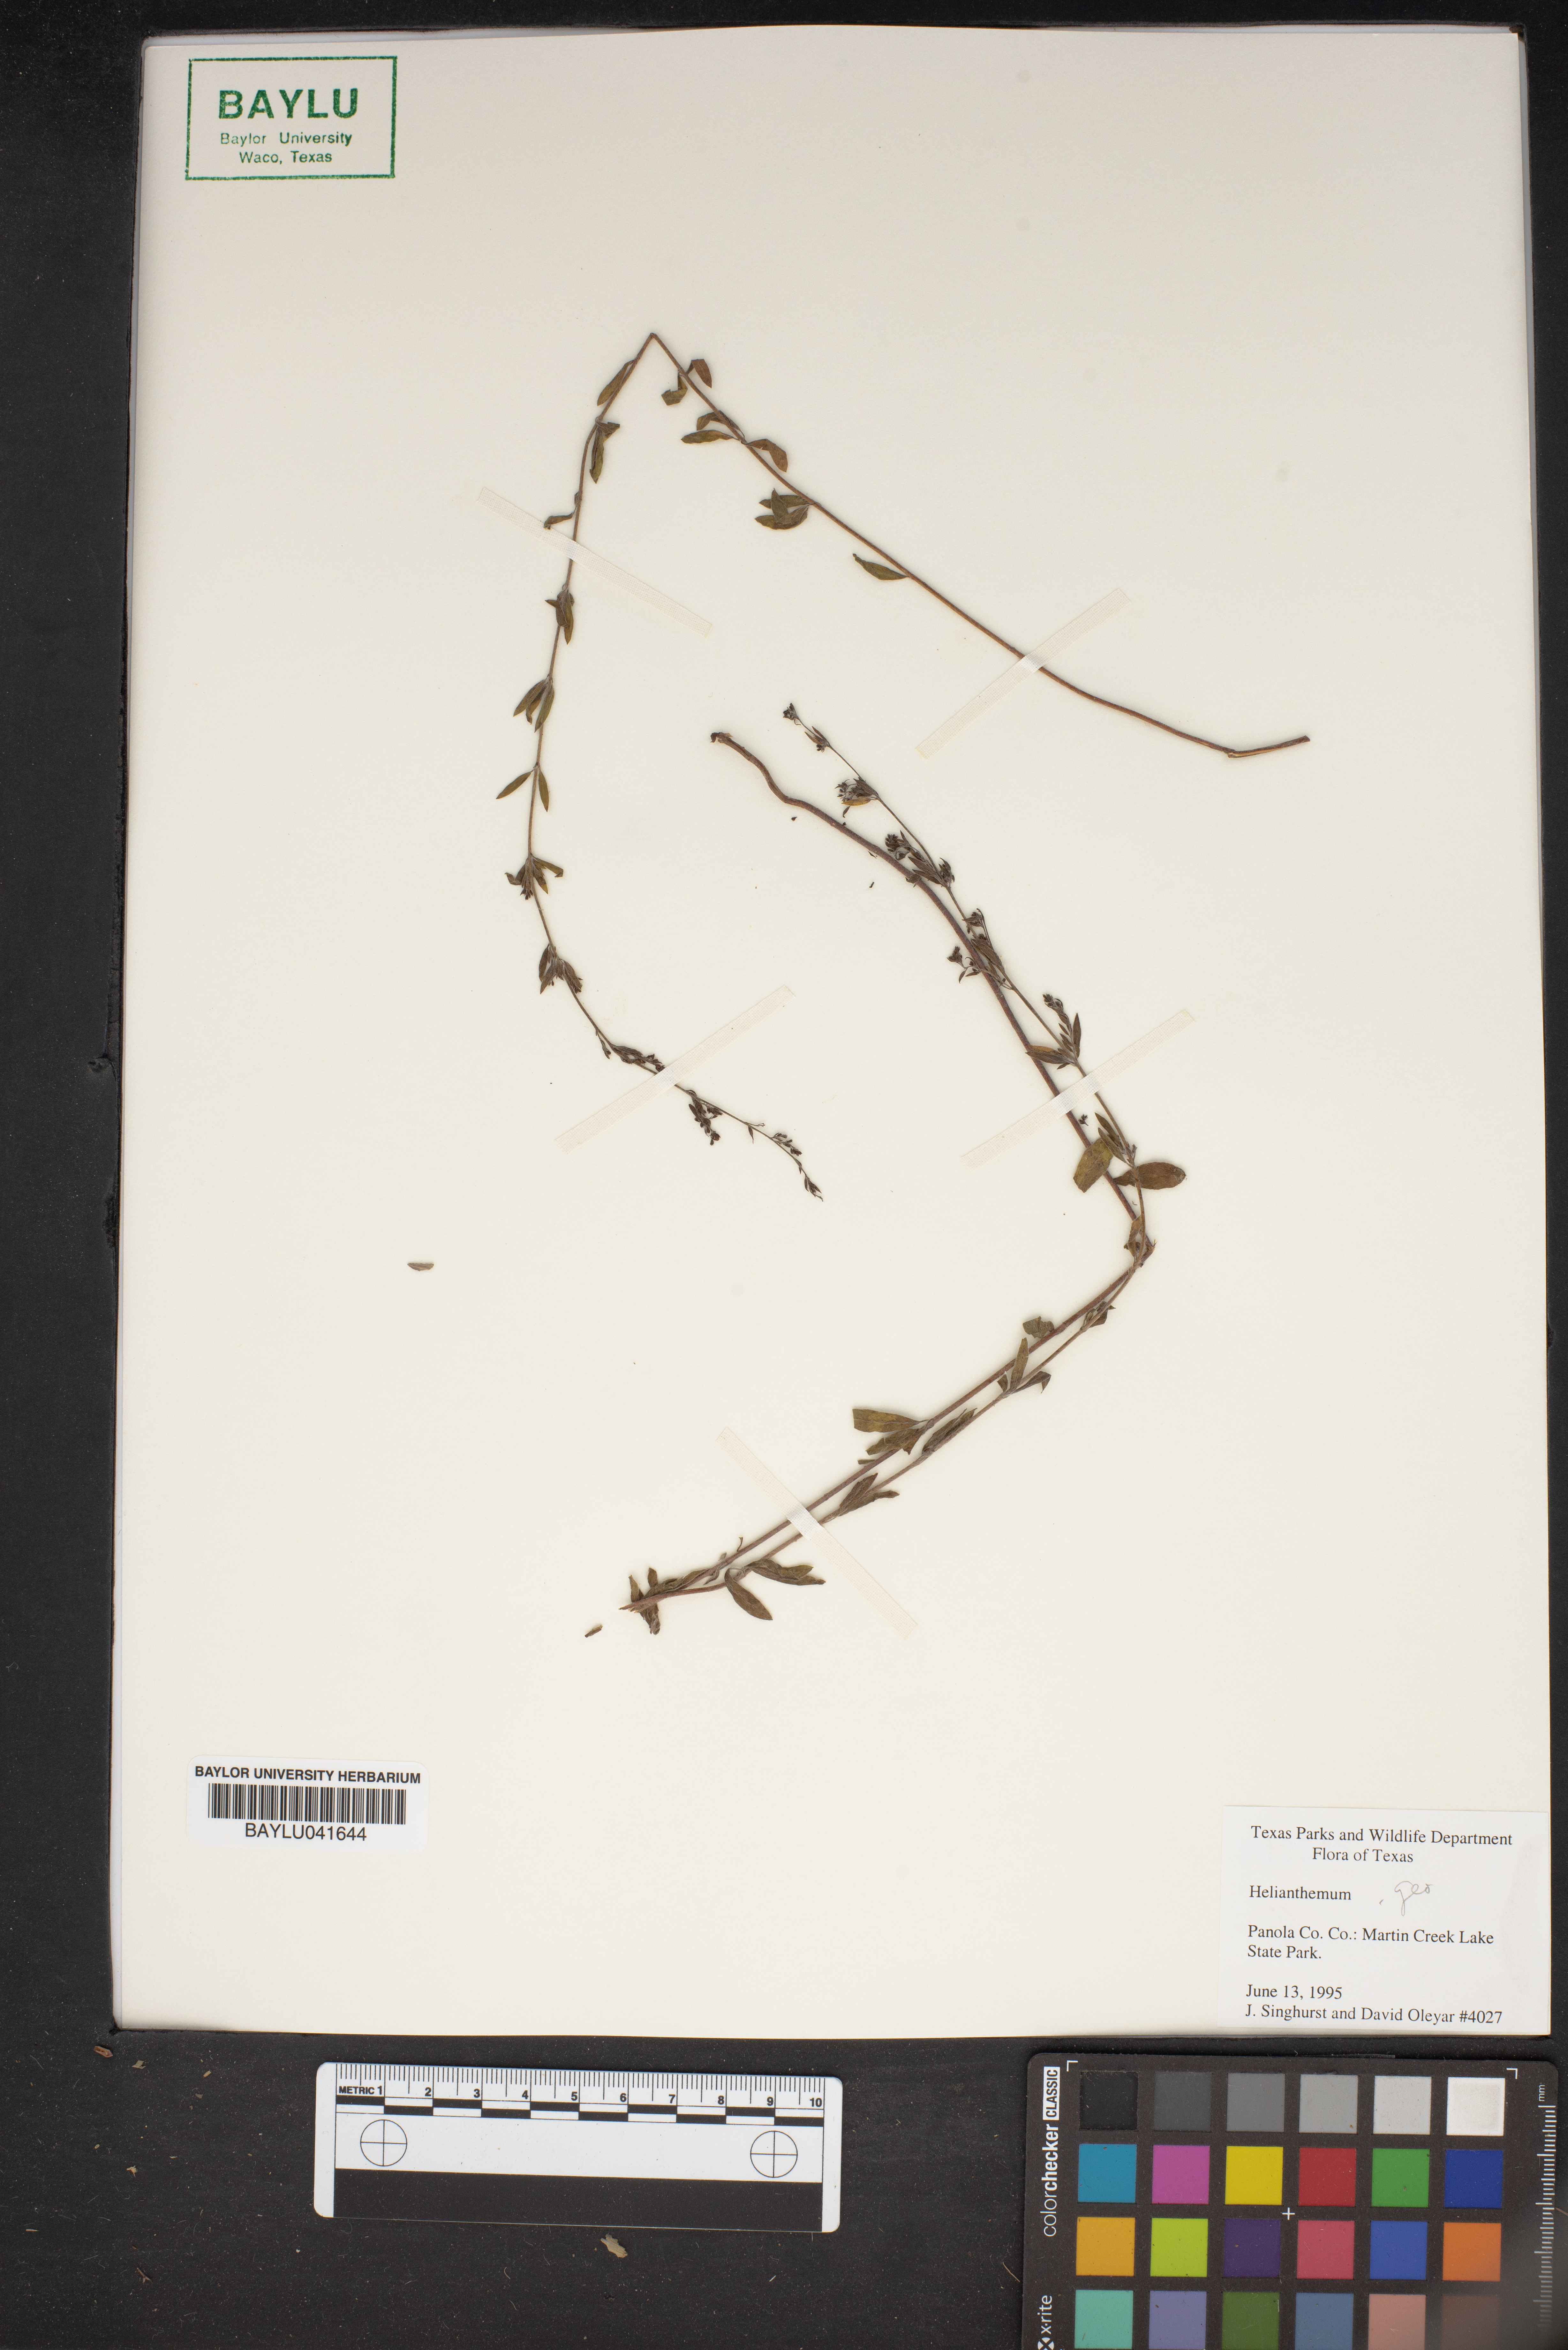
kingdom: Plantae
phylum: Tracheophyta
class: Magnoliopsida
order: Malvales
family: Cistaceae
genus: Helianthemum
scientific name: Helianthemum
